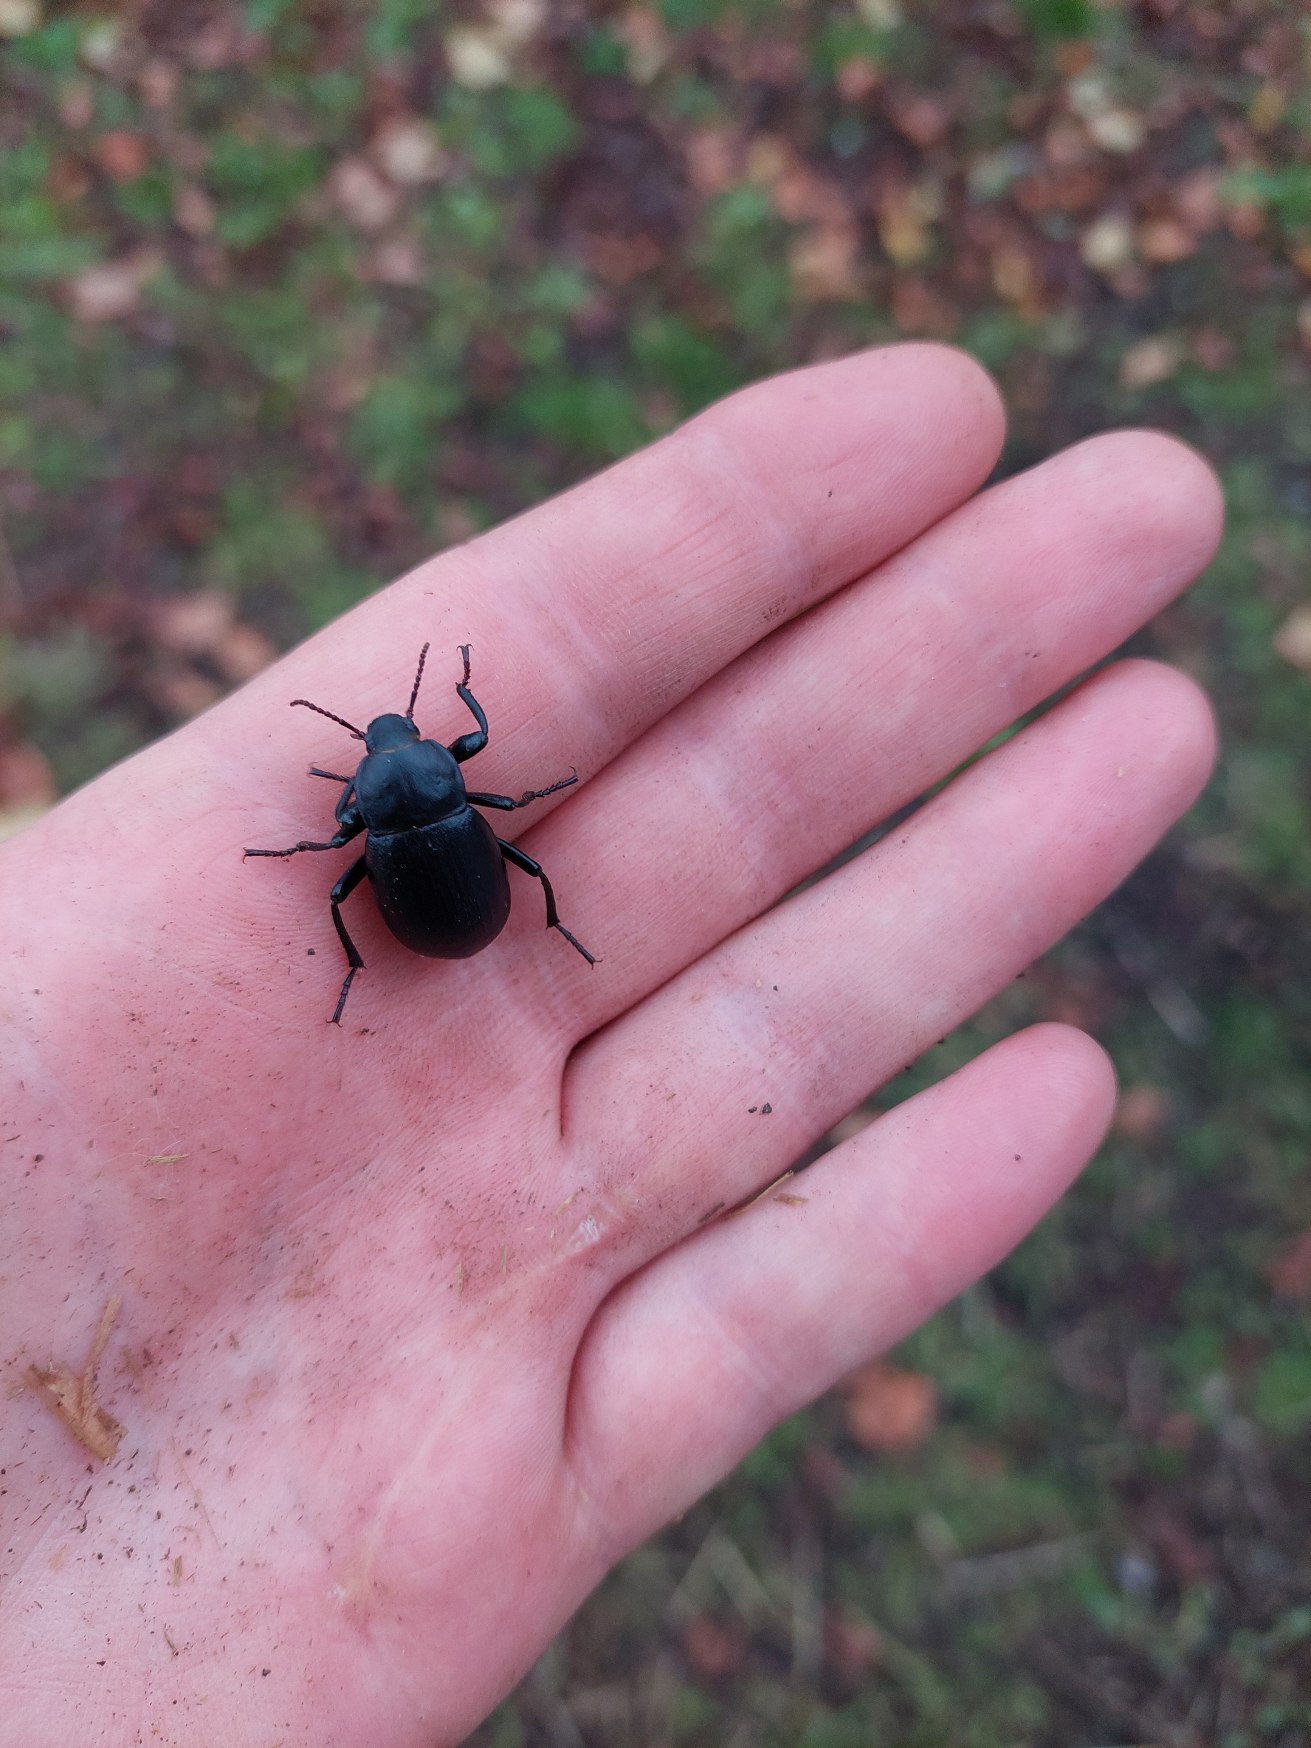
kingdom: Animalia
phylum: Arthropoda
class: Insecta
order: Coleoptera
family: Tenebrionidae
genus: Blaps
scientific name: Blaps lethifera
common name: Bred dødningebille
